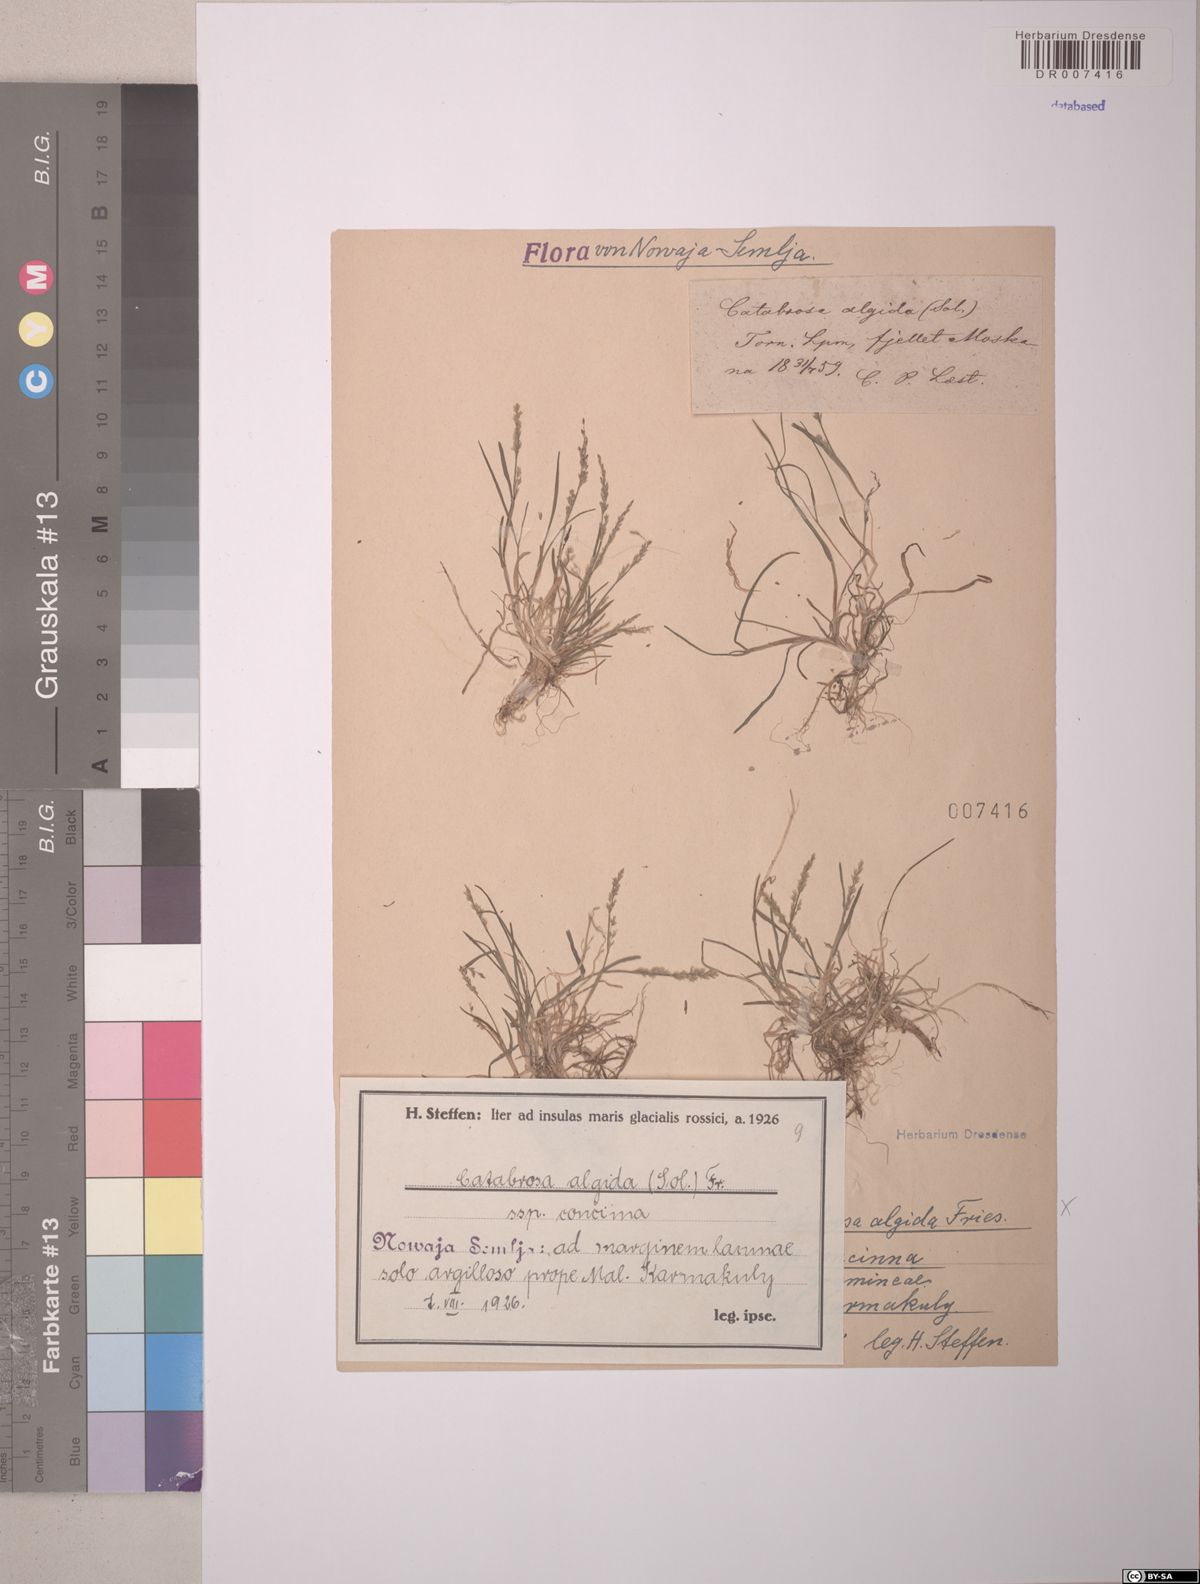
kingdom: Plantae
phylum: Tracheophyta
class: Liliopsida
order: Poales
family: Poaceae
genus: Phippsia
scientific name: Phippsia algida
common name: Ice grass
